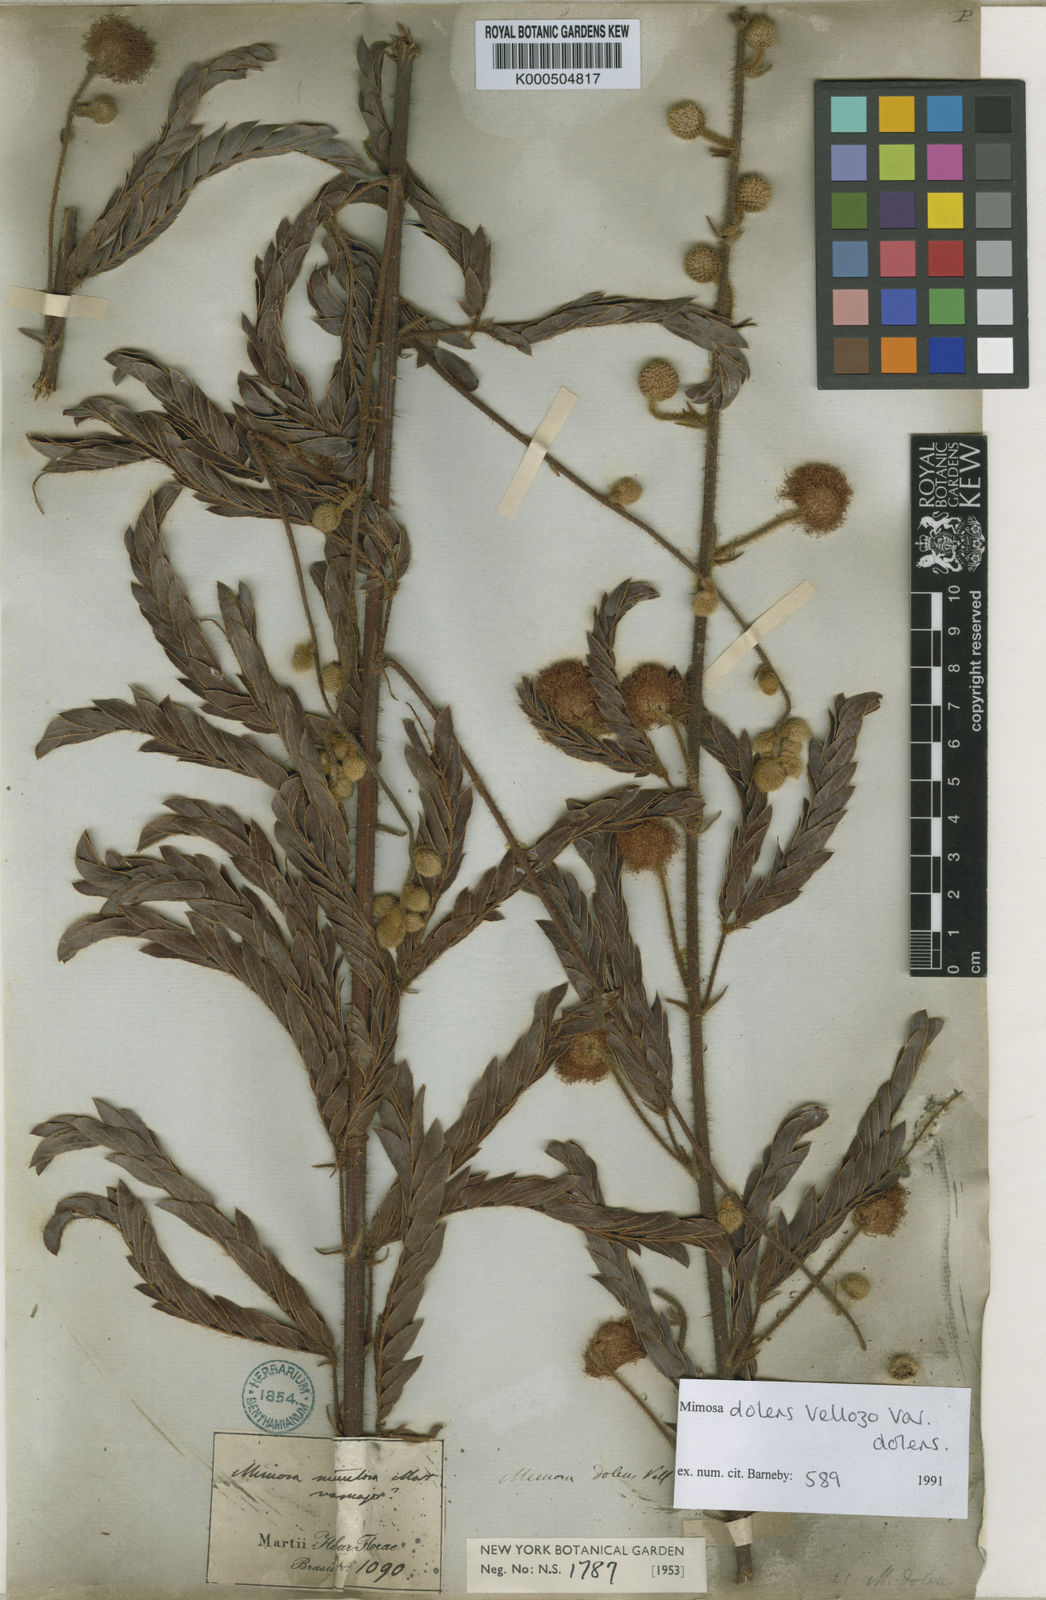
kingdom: Plantae
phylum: Tracheophyta
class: Magnoliopsida
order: Fabales
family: Fabaceae
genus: Mimosa
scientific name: Mimosa dolens
